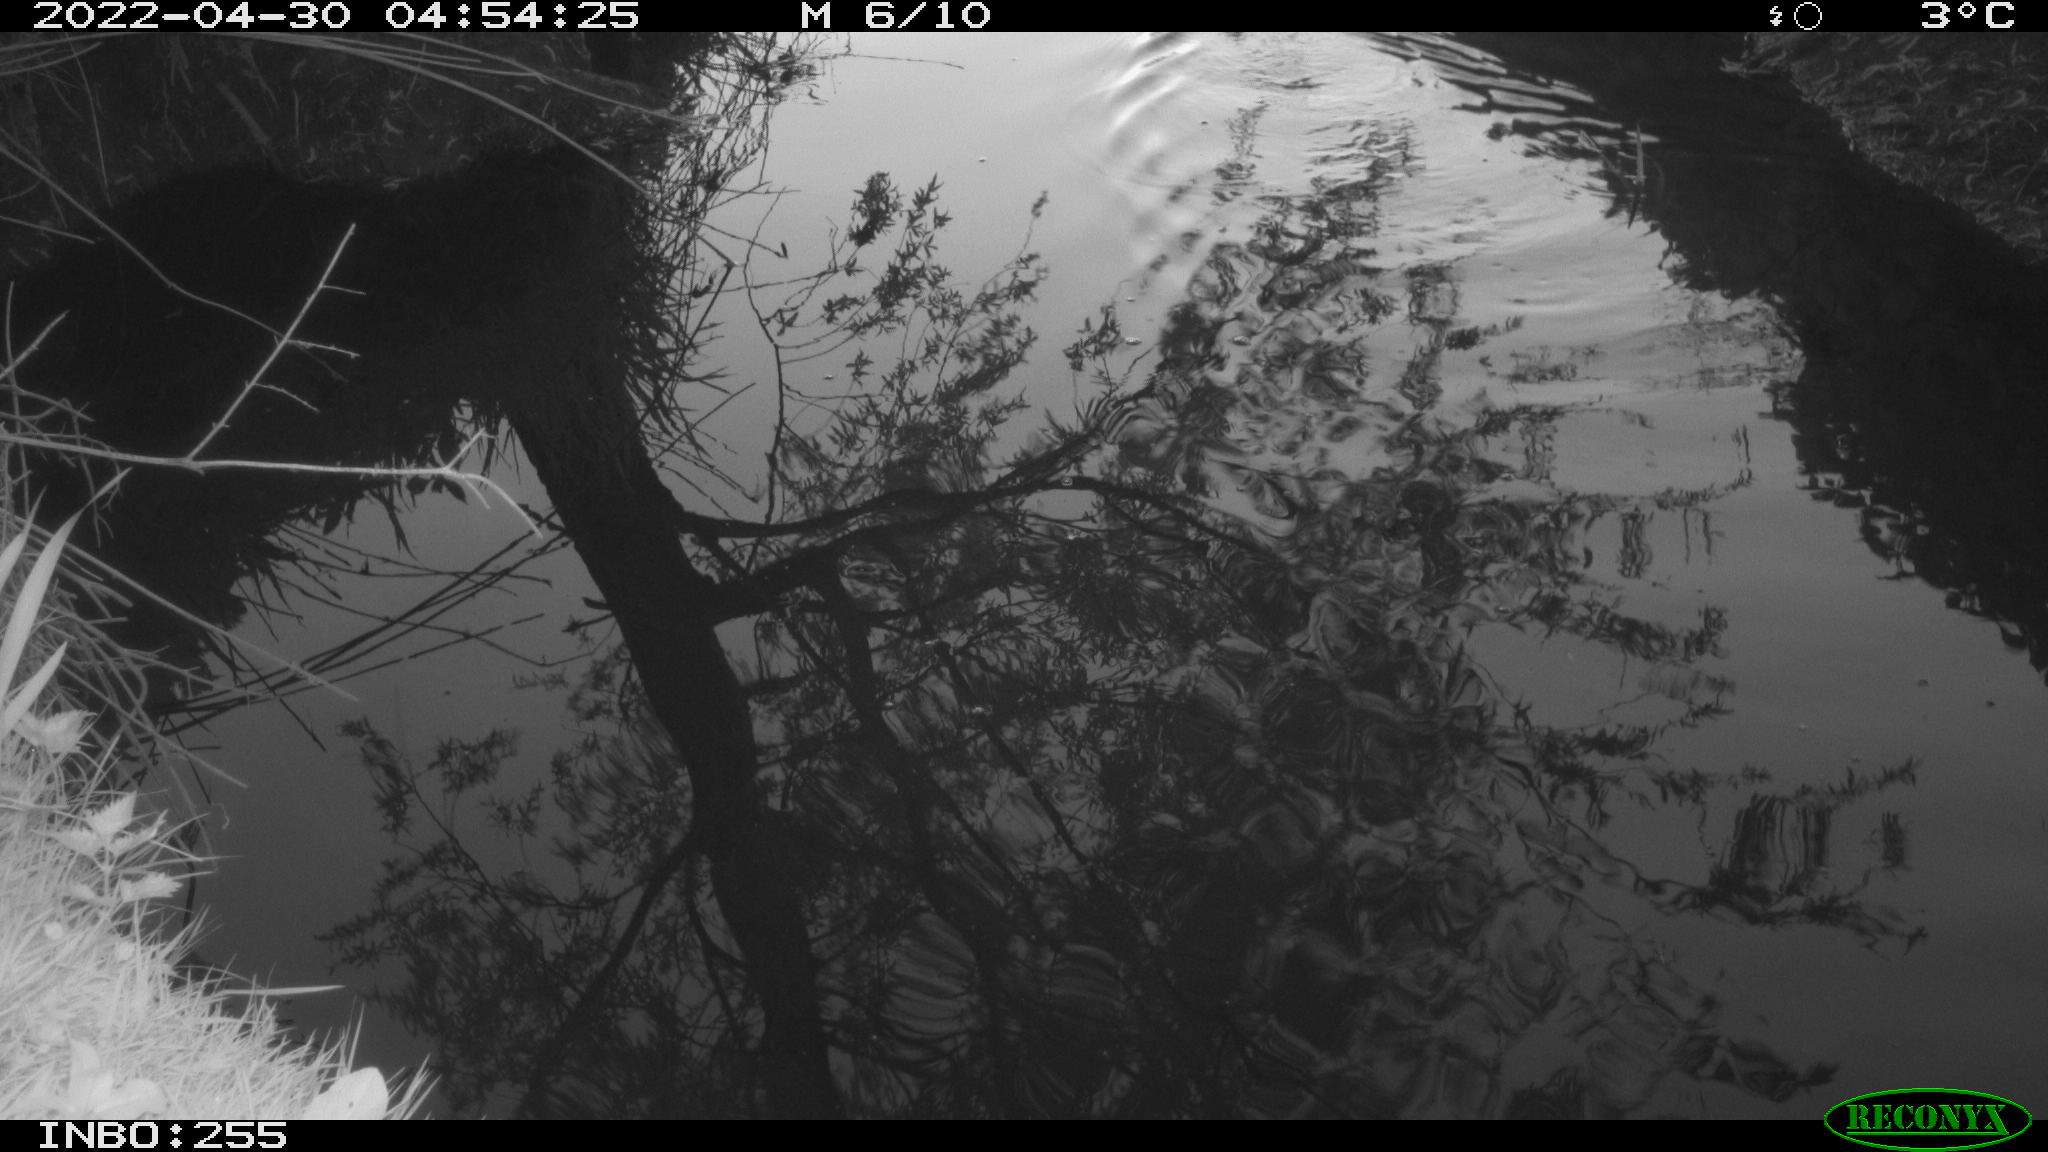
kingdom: Animalia
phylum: Chordata
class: Aves
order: Anseriformes
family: Anatidae
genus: Anas
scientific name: Anas platyrhynchos
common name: Mallard
